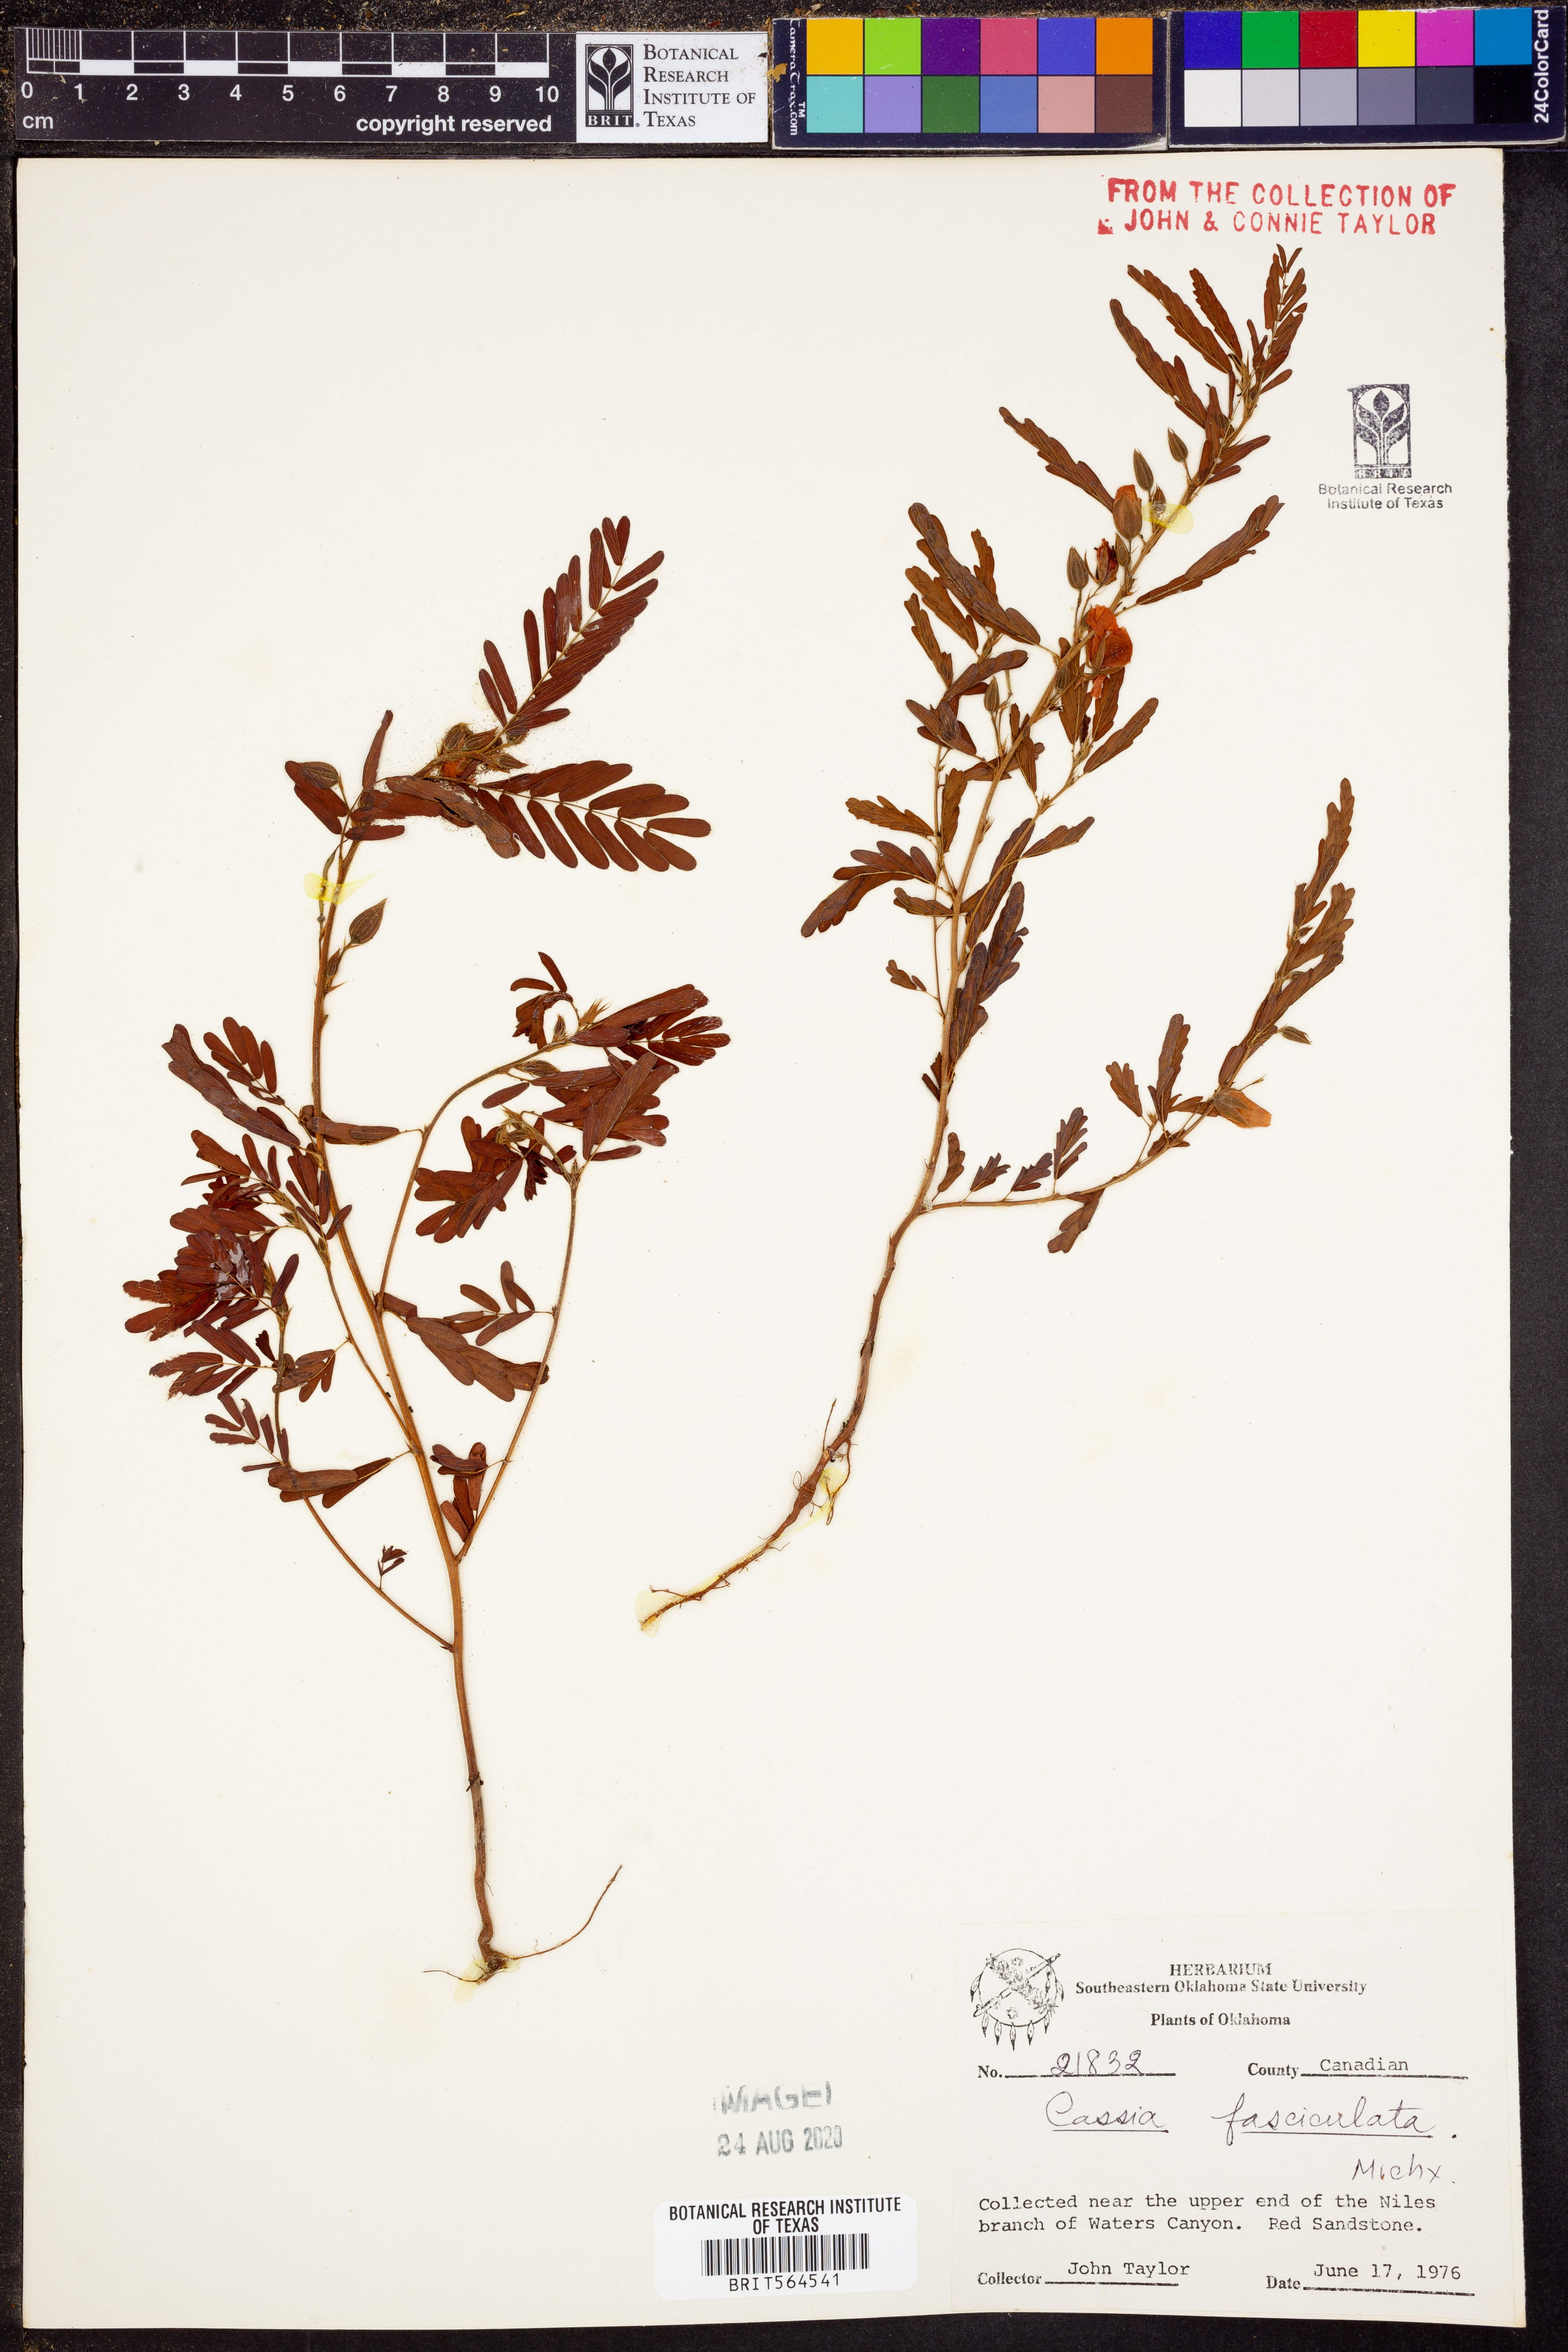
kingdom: Plantae
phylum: Tracheophyta
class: Magnoliopsida
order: Fabales
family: Fabaceae
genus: Chamaecrista
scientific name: Chamaecrista fasciculata
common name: Golden cassia
